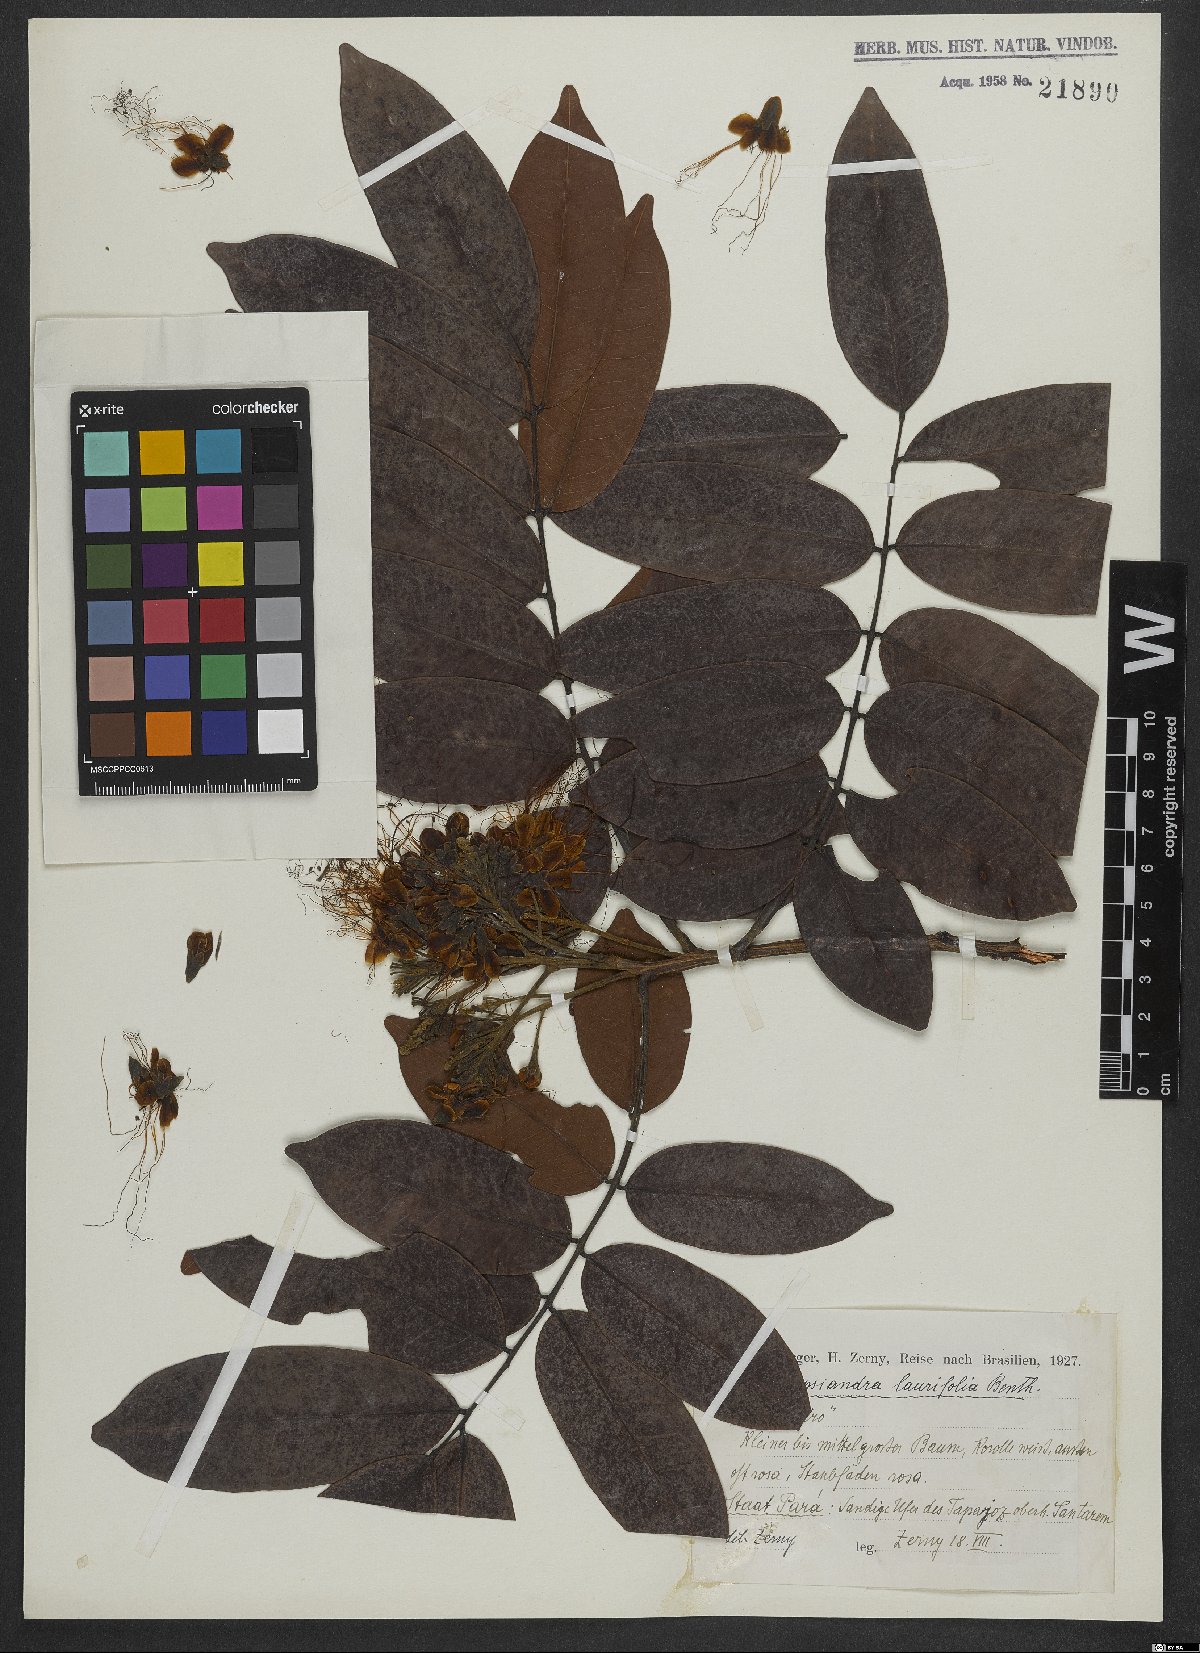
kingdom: Plantae
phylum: Tracheophyta
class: Magnoliopsida
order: Fabales
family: Fabaceae
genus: Campsiandra
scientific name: Campsiandra laurifolia
